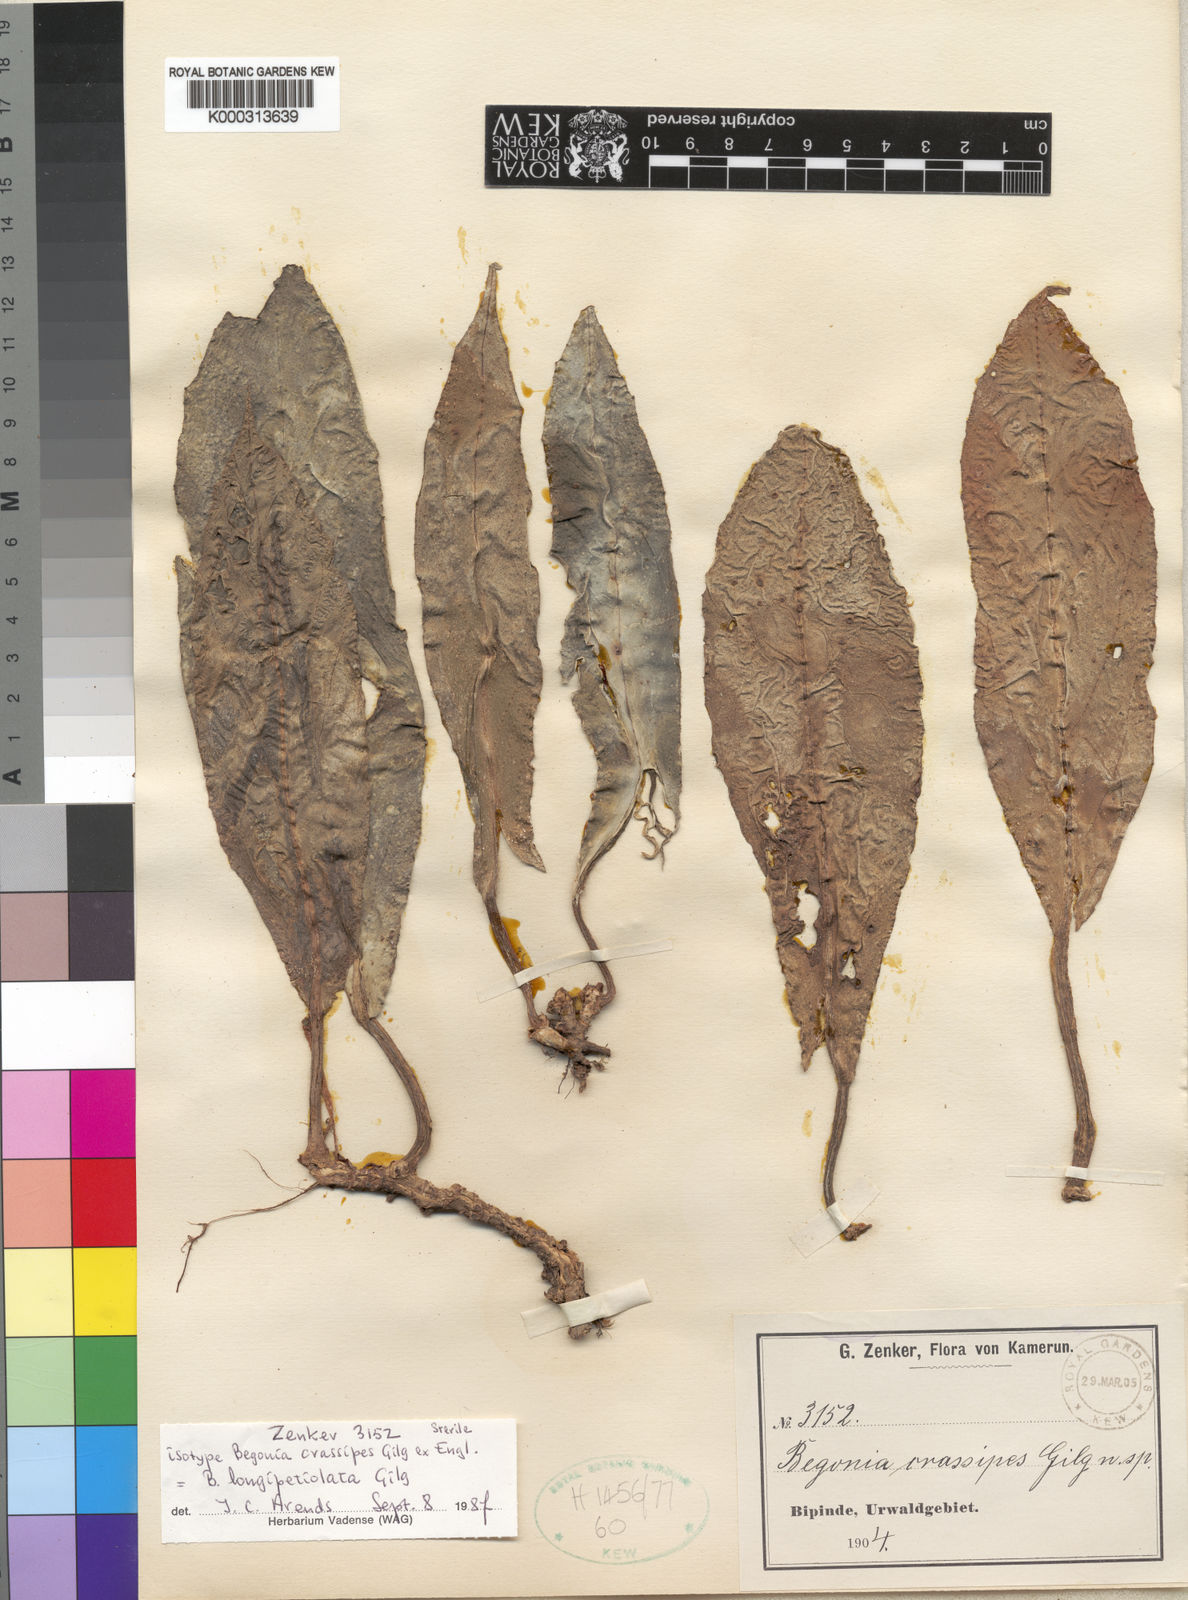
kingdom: Plantae
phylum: Tracheophyta
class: Magnoliopsida
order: Cucurbitales
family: Begoniaceae
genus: Begonia
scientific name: Begonia longipetiolata
